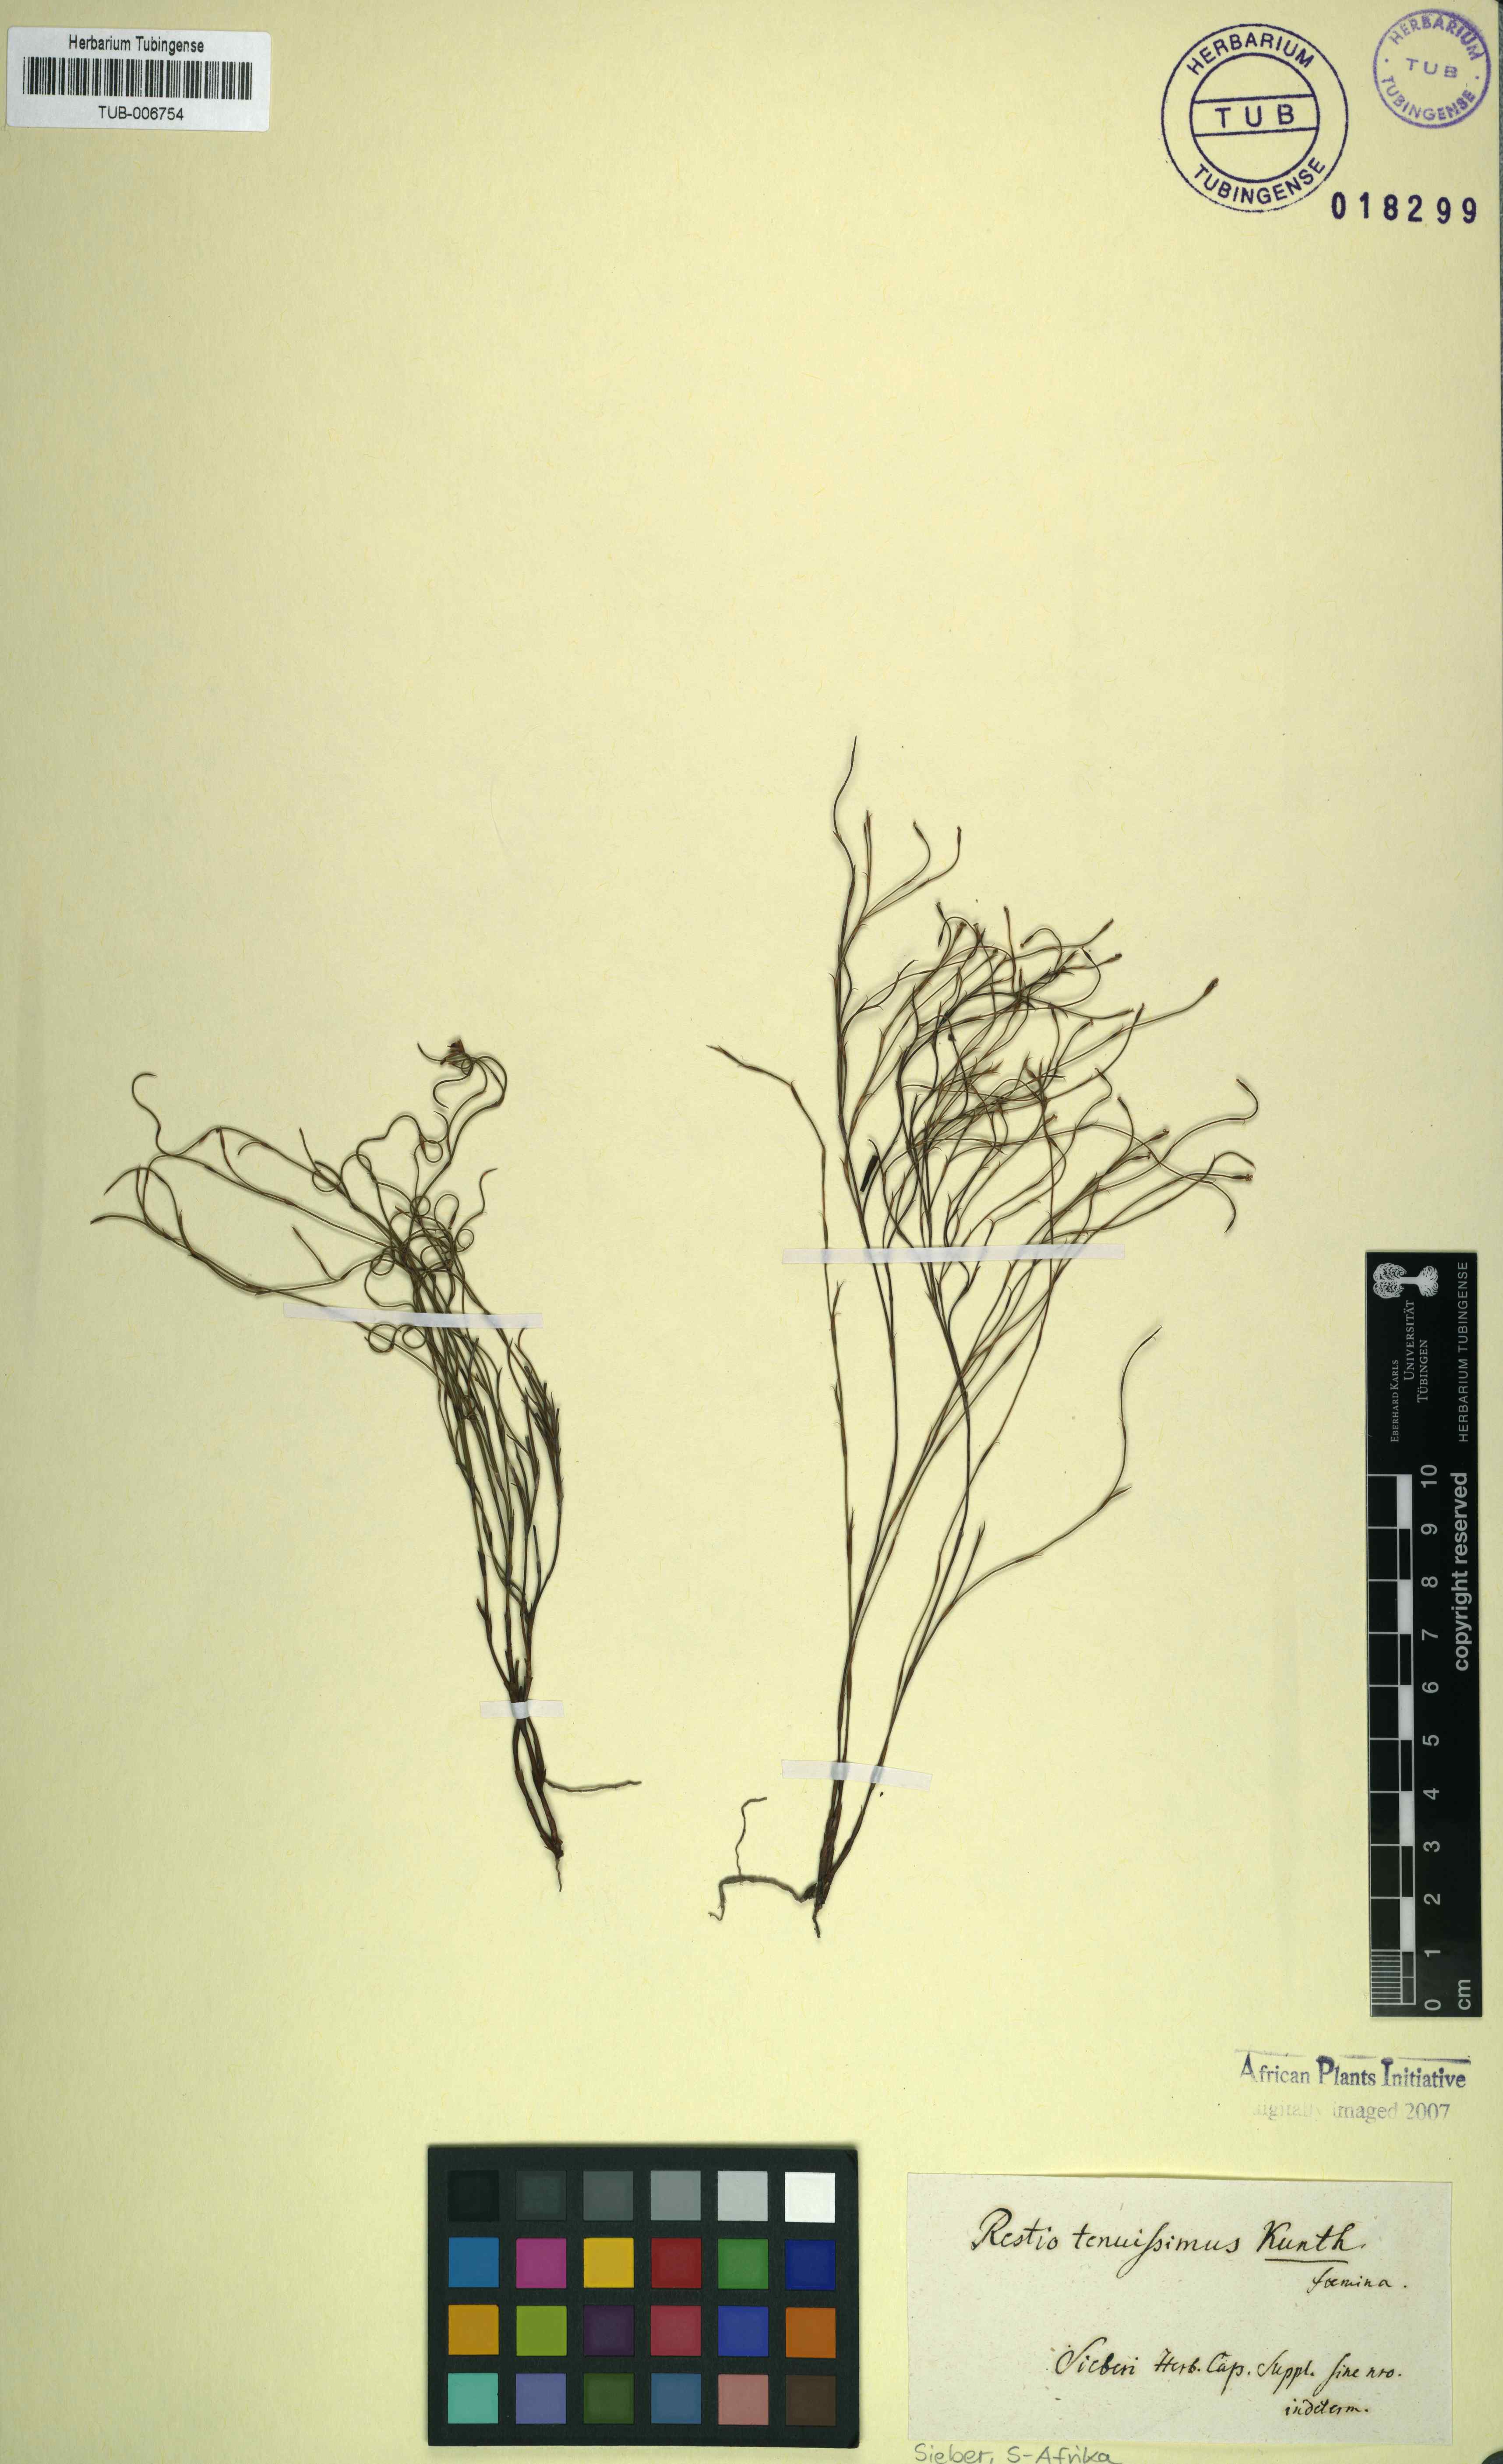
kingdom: Plantae
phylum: Tracheophyta
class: Liliopsida
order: Poales
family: Restionaceae
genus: Restio
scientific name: Restio tenuissimus
